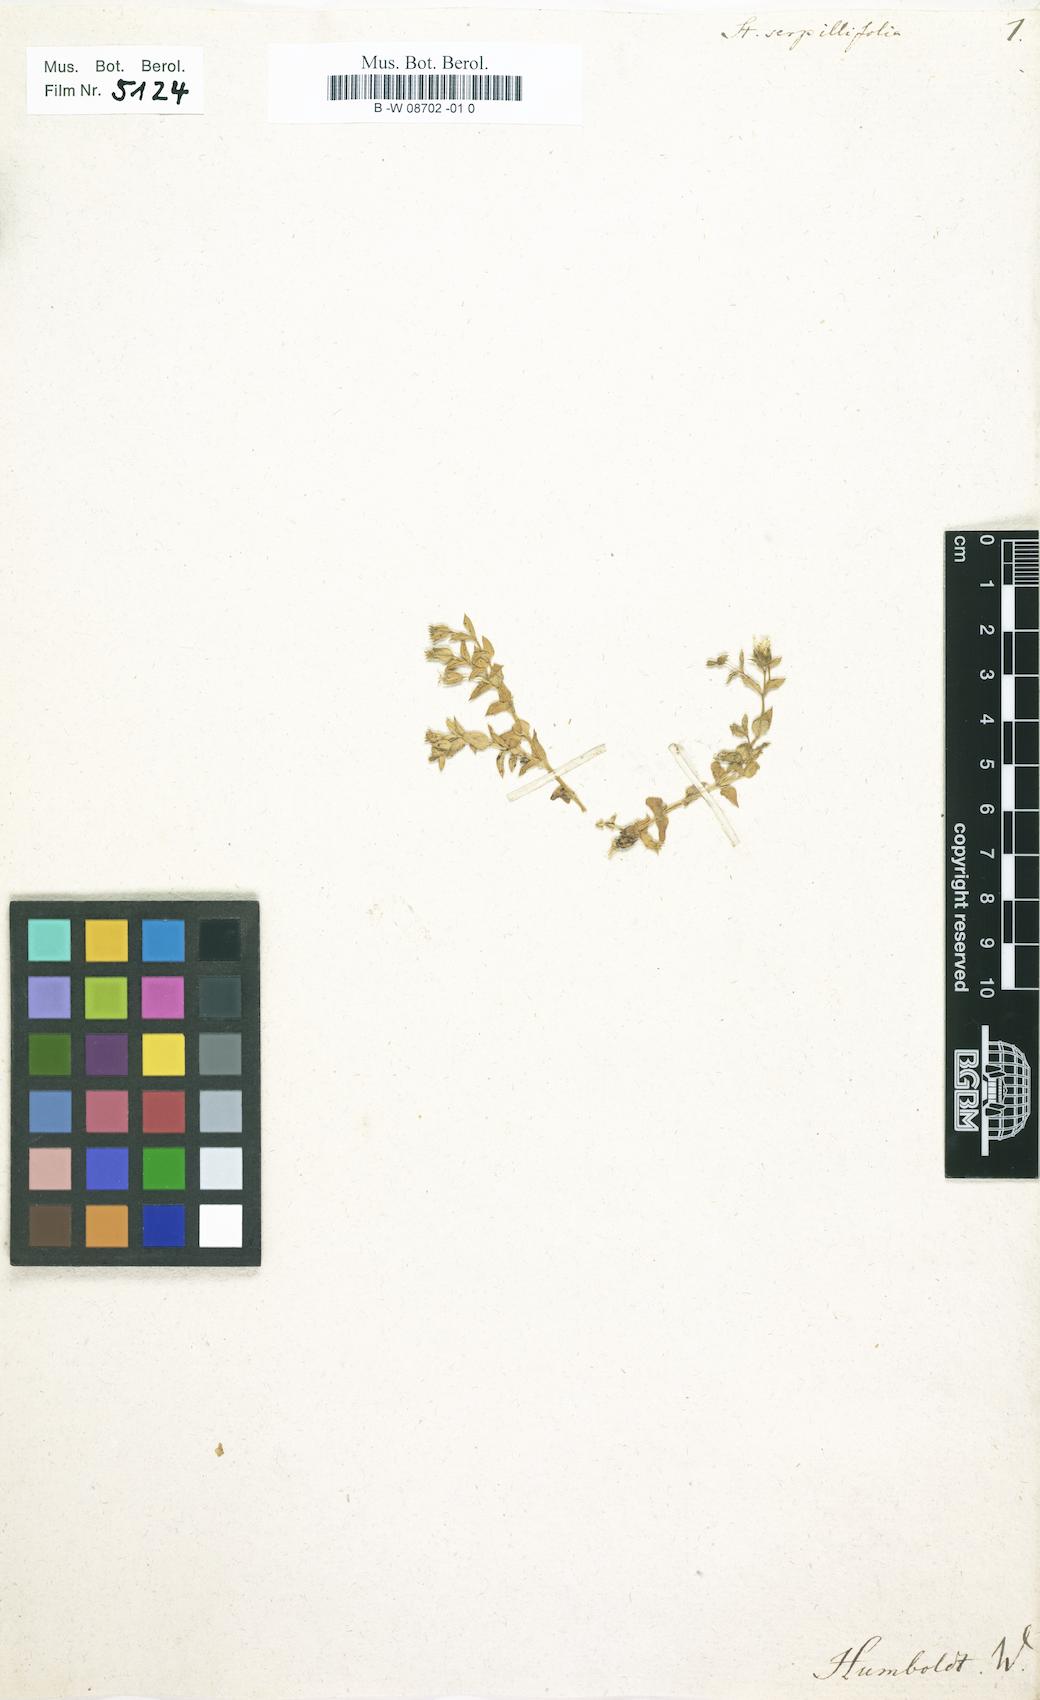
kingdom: Plantae
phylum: Tracheophyta
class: Magnoliopsida
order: Caryophyllales
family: Caryophyllaceae
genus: Stellaria
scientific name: Stellaria recurvata
